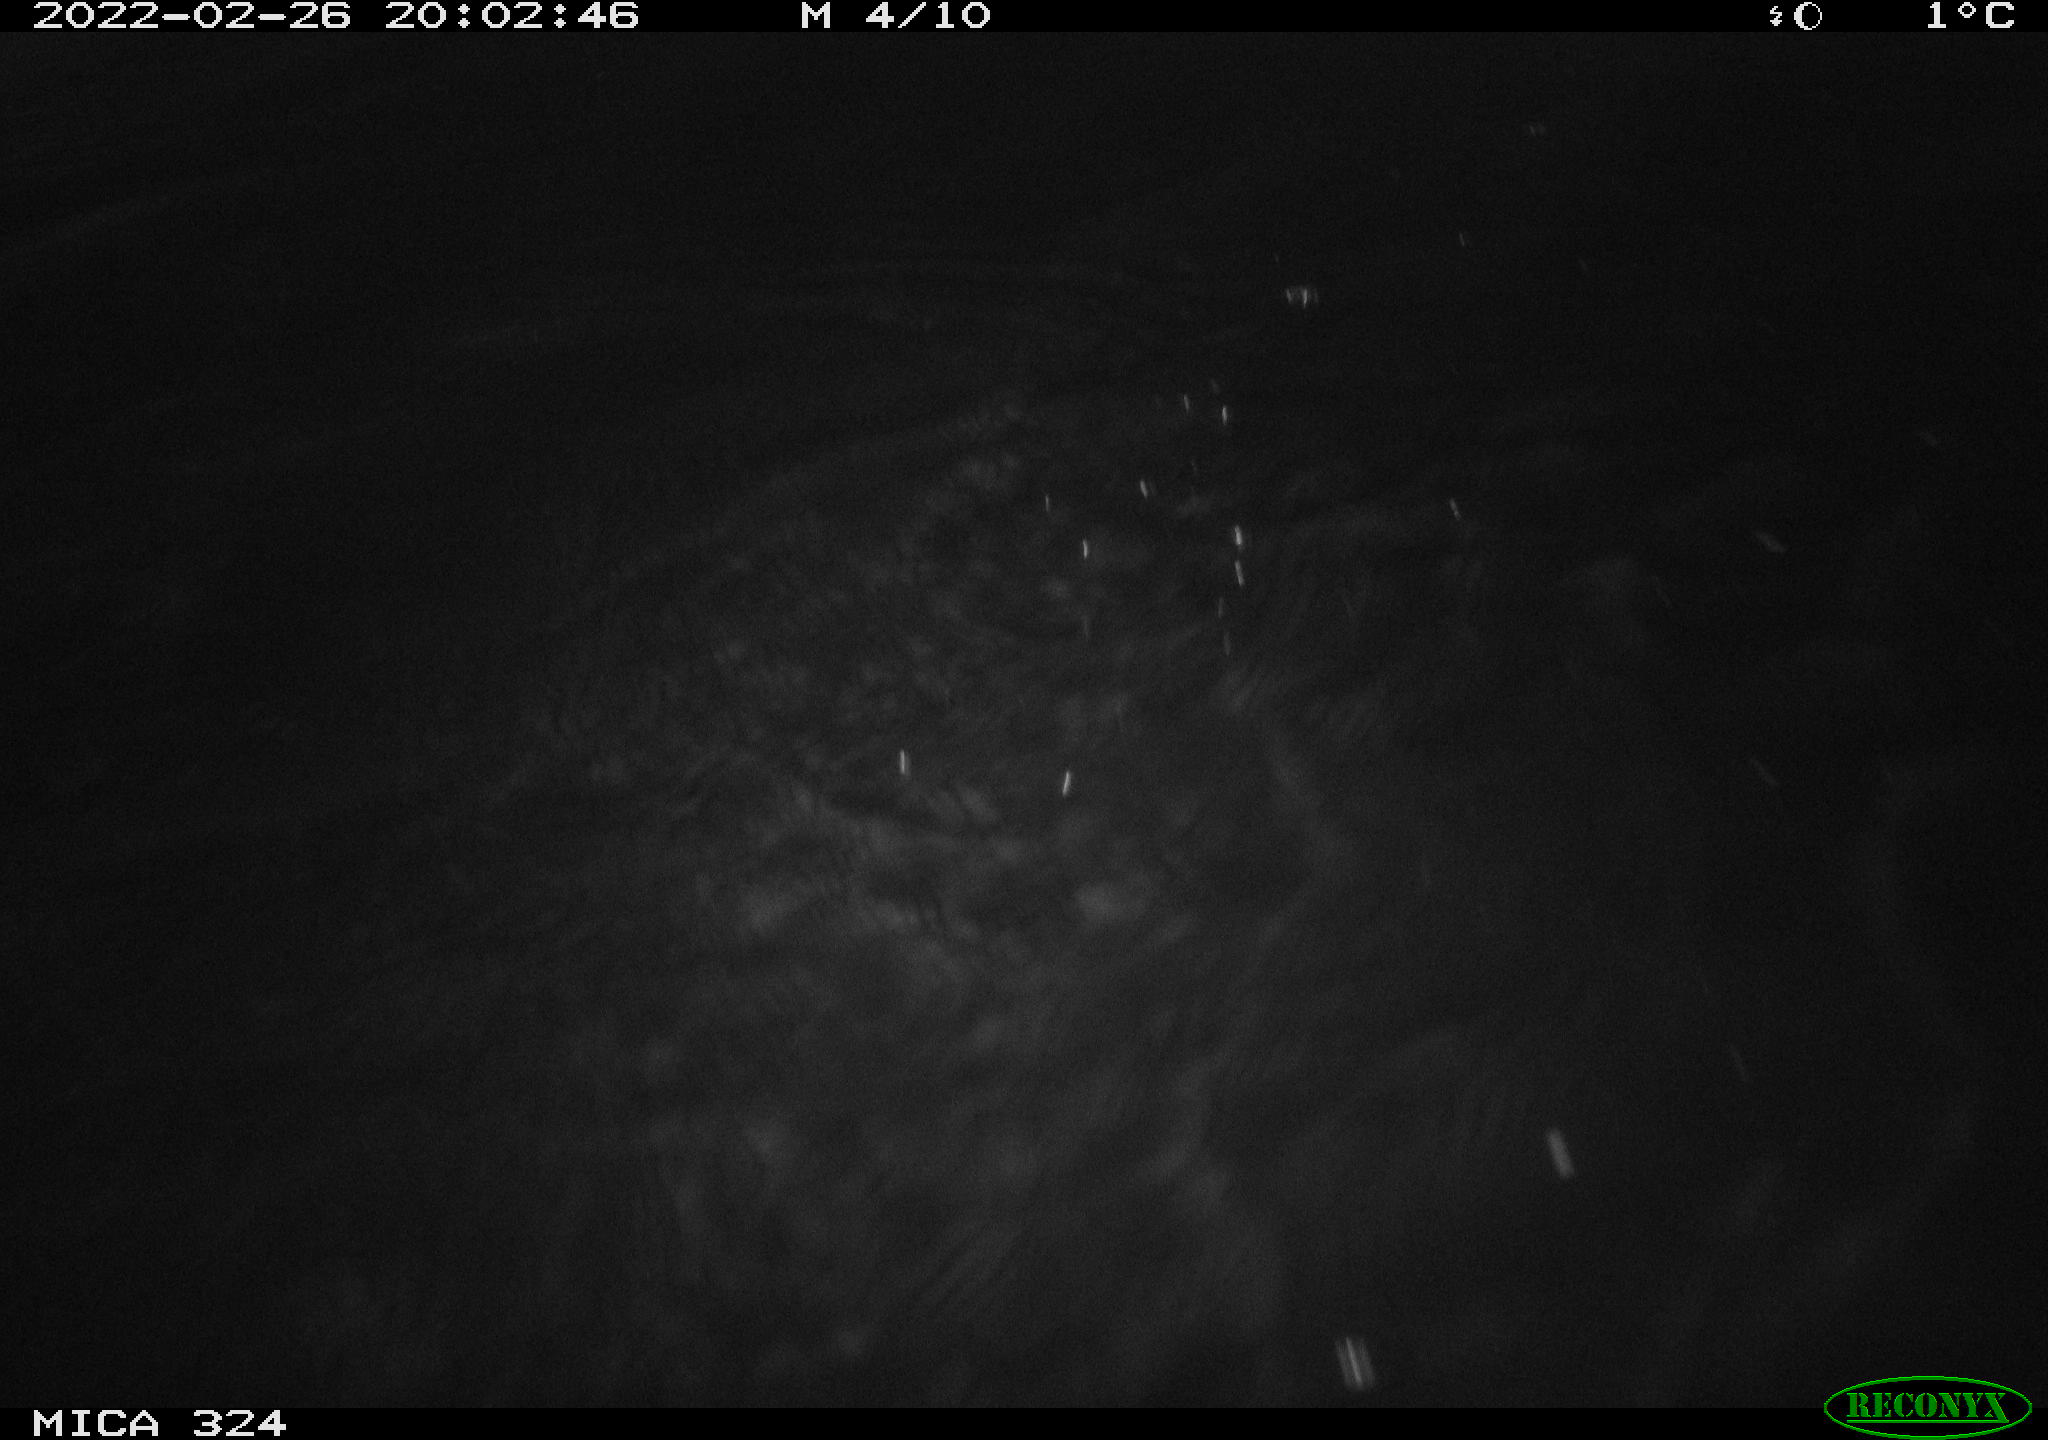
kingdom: Animalia
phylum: Chordata
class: Mammalia
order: Rodentia
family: Cricetidae
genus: Ondatra
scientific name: Ondatra zibethicus
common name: Muskrat
